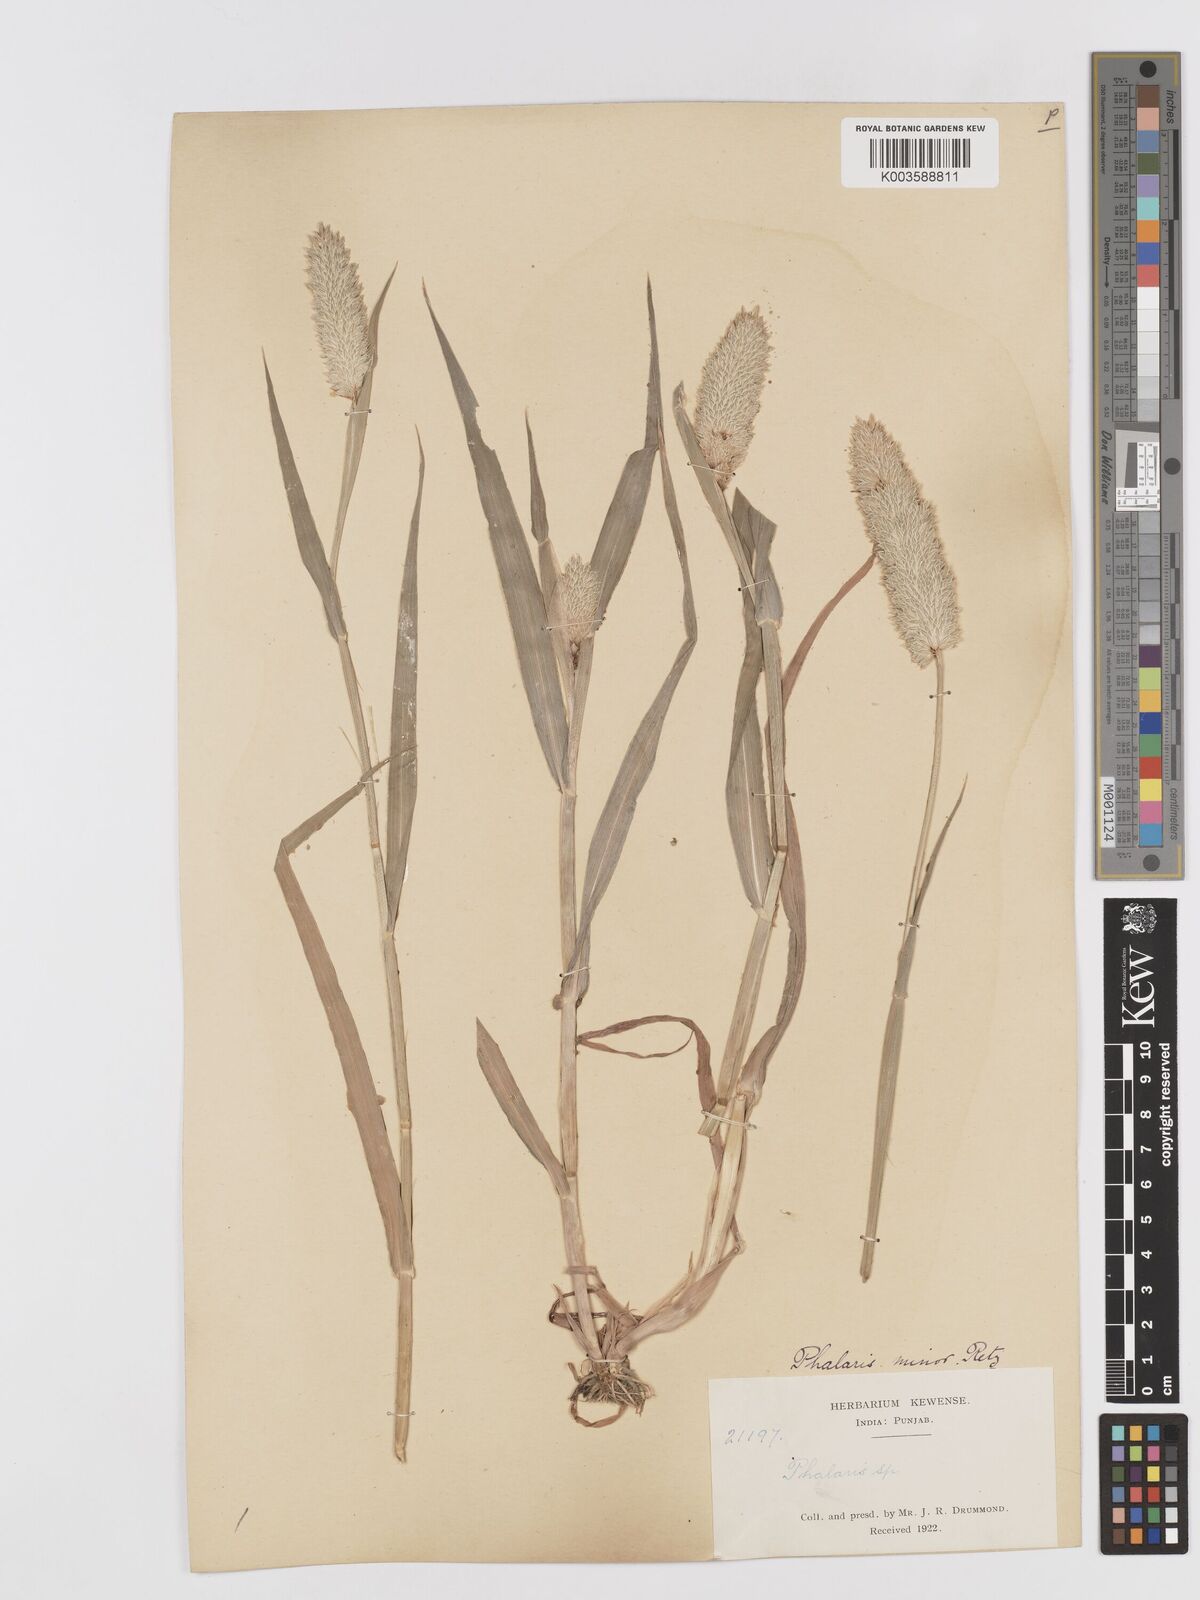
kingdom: Plantae
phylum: Tracheophyta
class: Liliopsida
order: Poales
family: Poaceae
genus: Phalaris
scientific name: Phalaris minor
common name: Littleseed canarygrass
